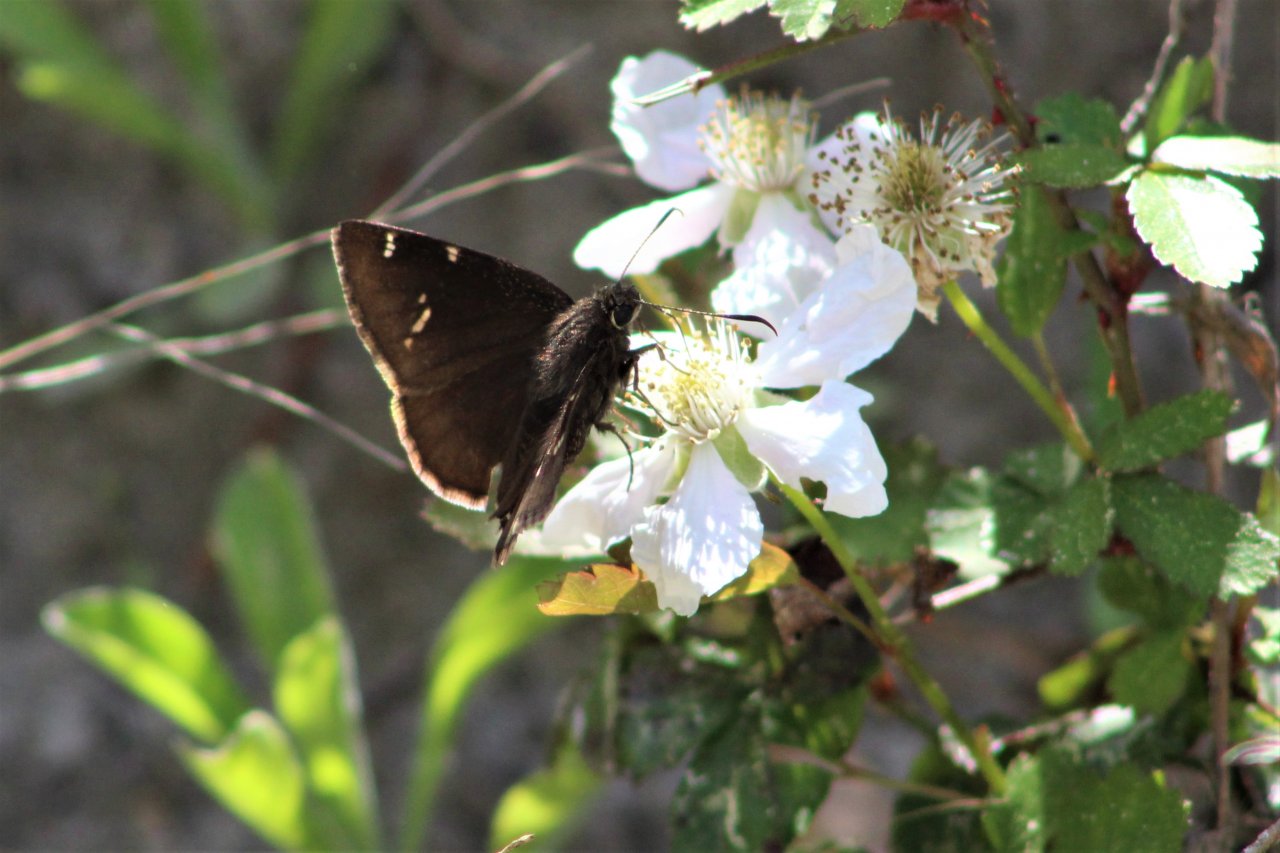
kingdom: Animalia
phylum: Arthropoda
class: Insecta
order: Lepidoptera
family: Hesperiidae
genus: Autochton
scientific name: Autochton
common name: Southern Cloudywing
